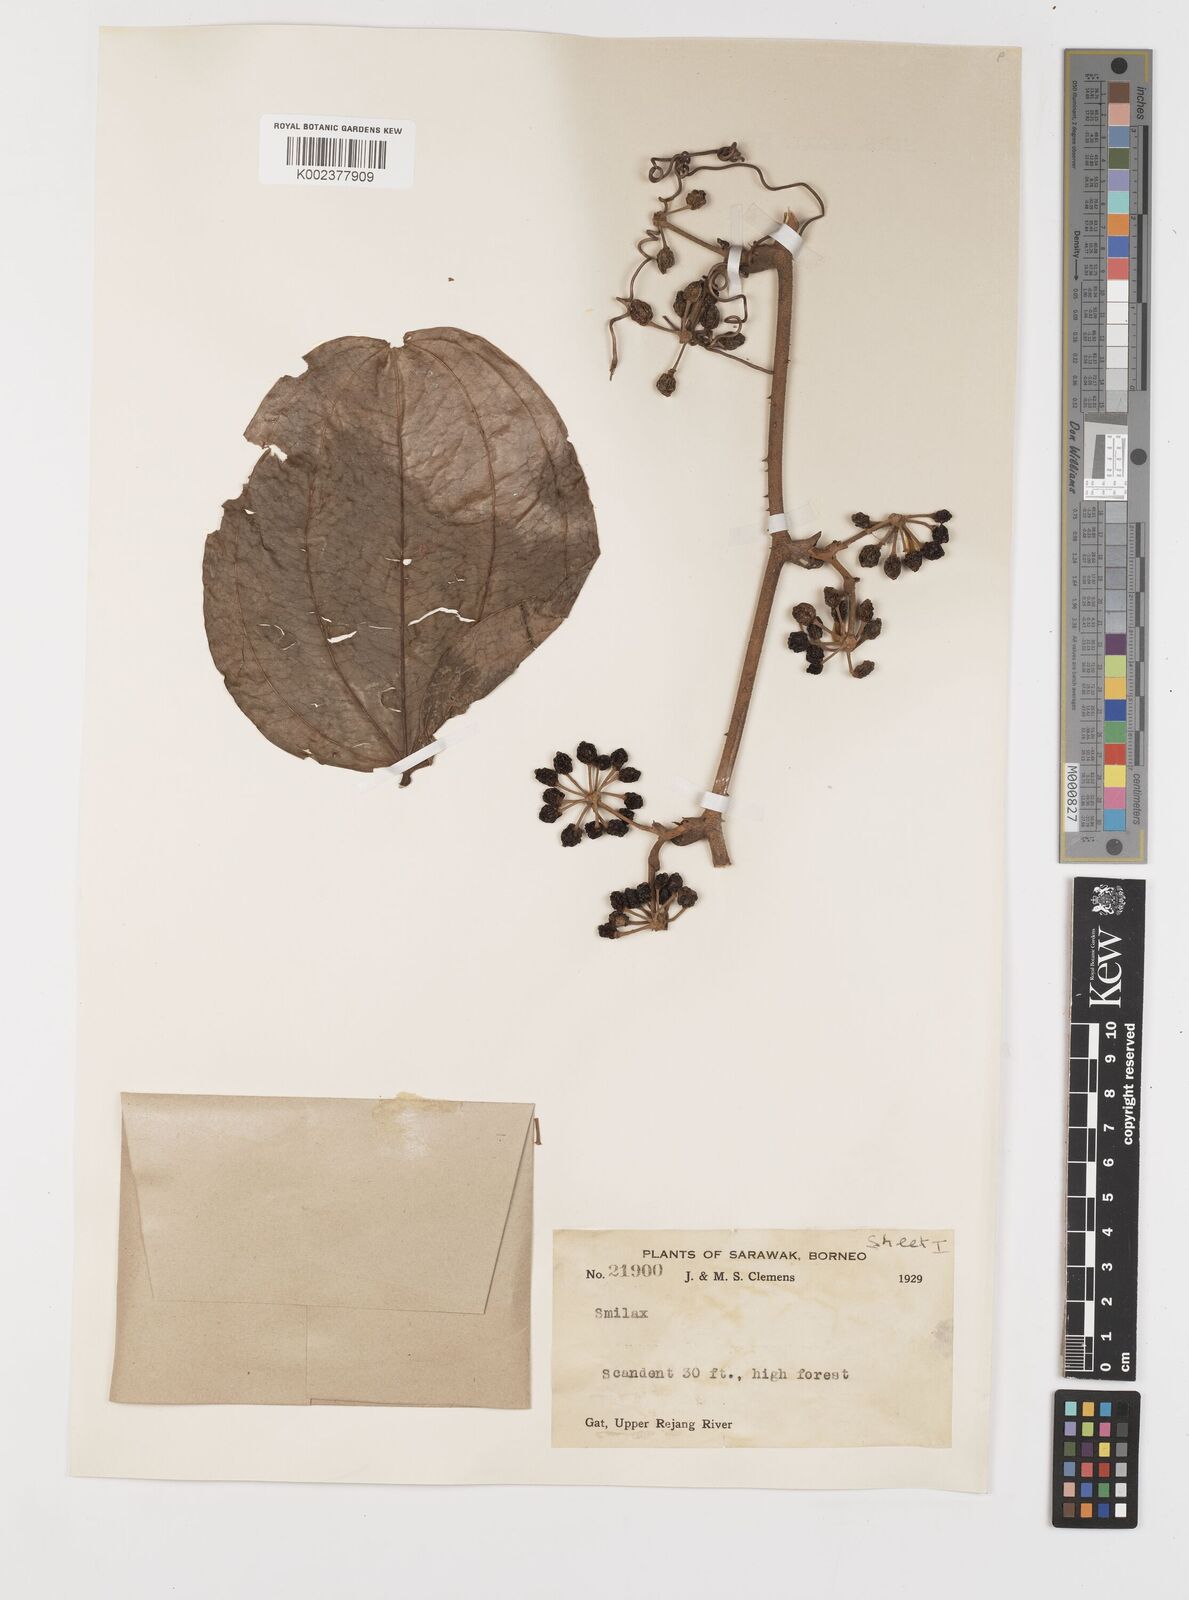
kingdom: Plantae
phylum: Tracheophyta
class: Liliopsida
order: Liliales
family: Smilacaceae
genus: Smilax
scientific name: Smilax
